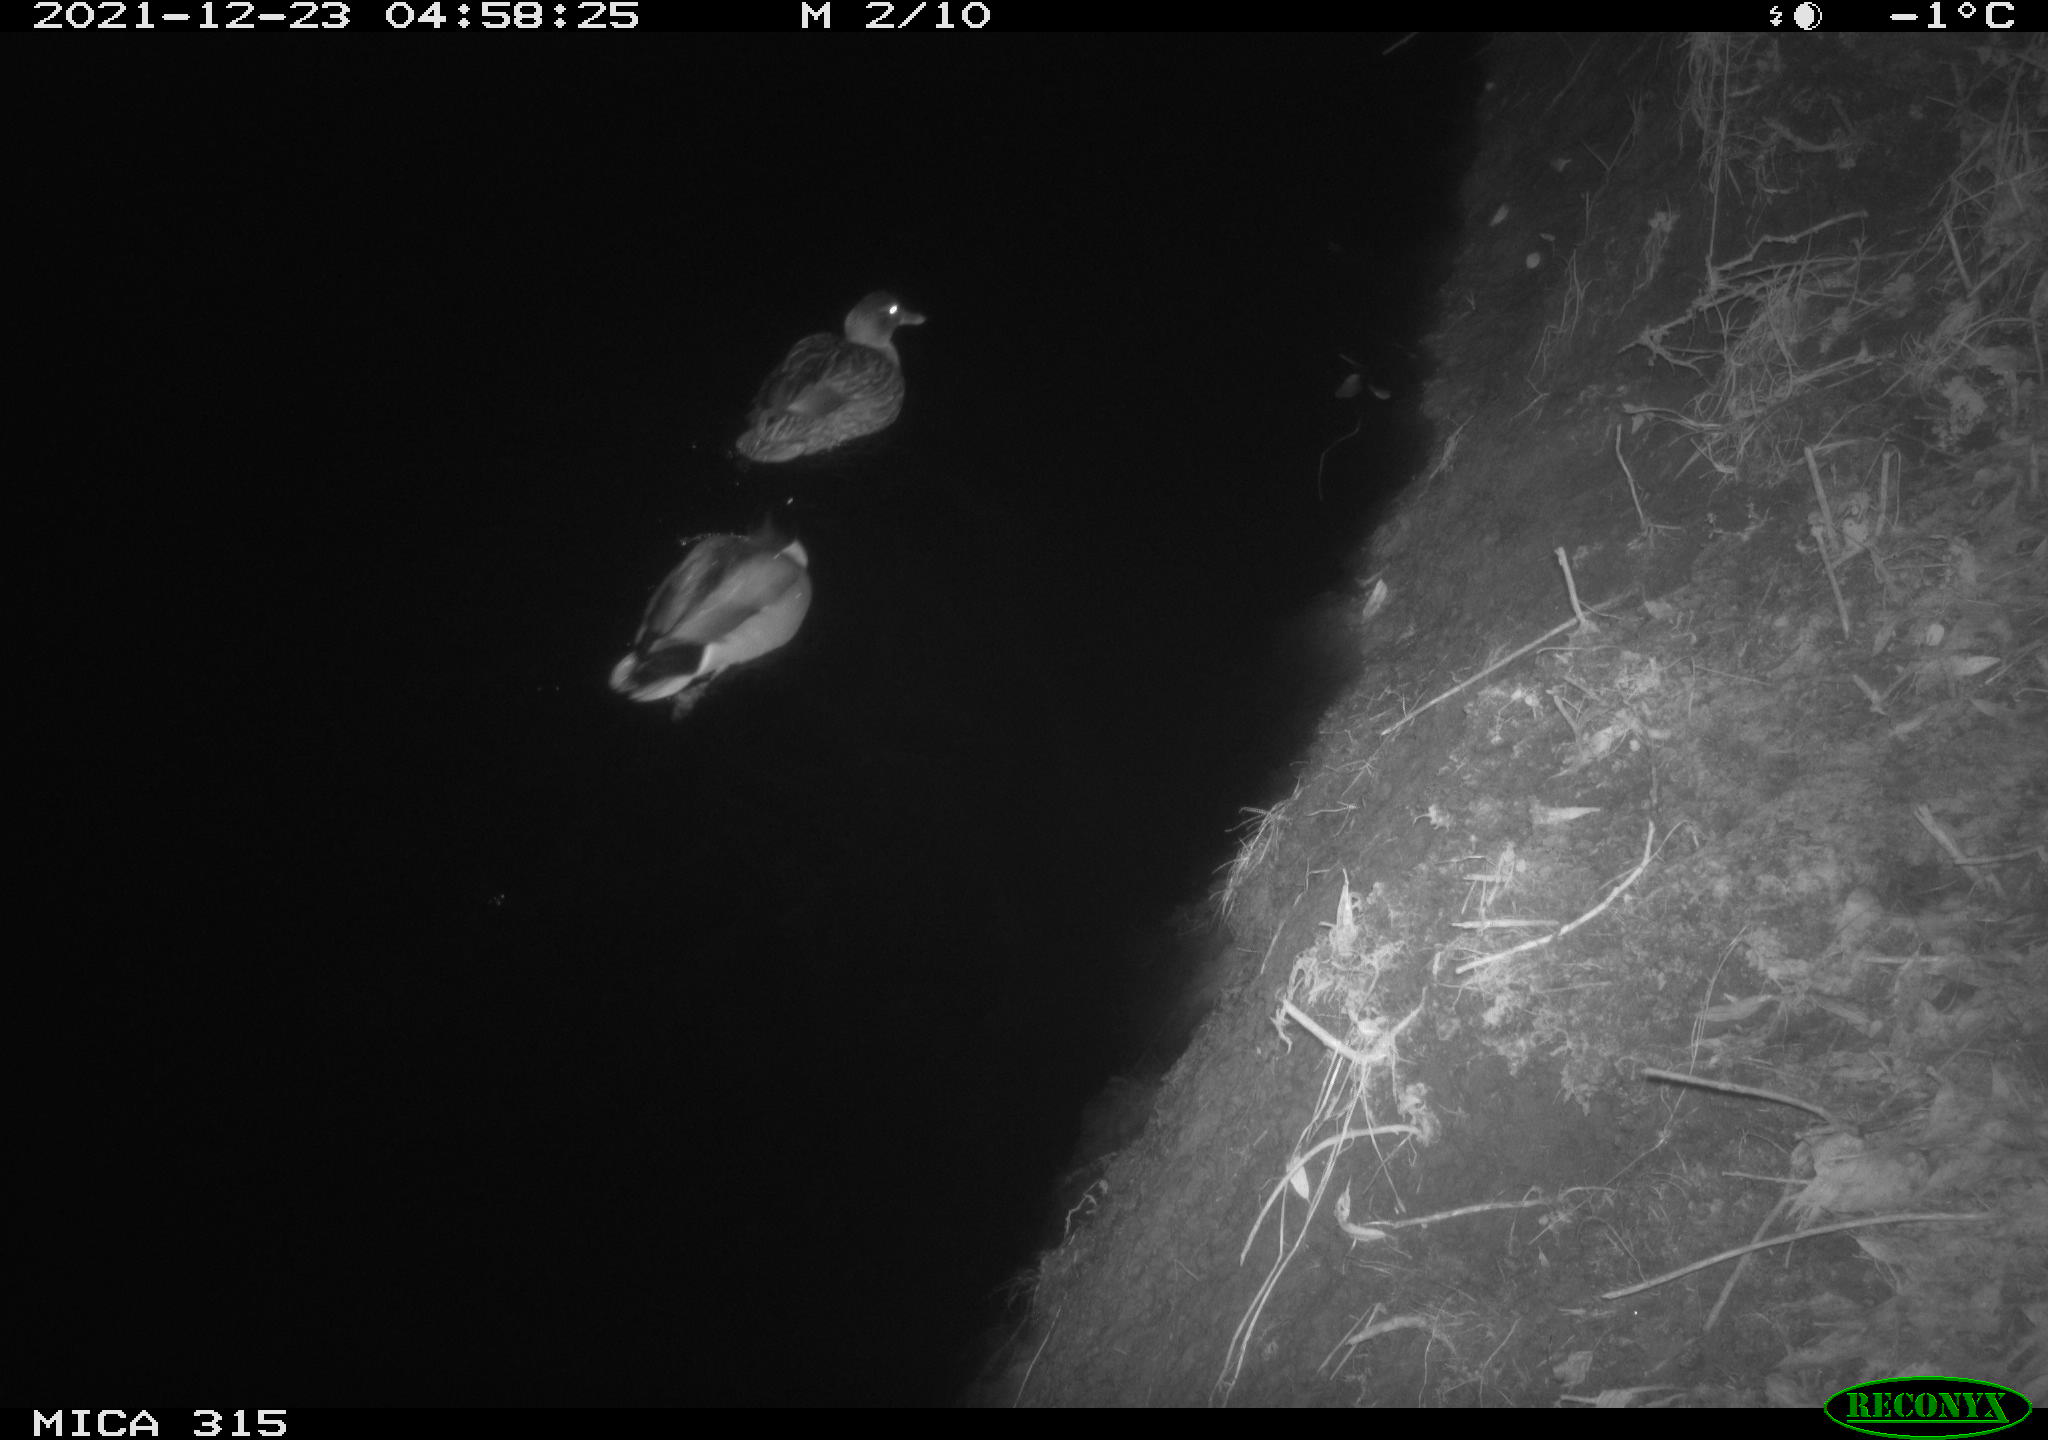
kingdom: Animalia
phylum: Chordata
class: Aves
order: Anseriformes
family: Anatidae
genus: Anas
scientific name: Anas
